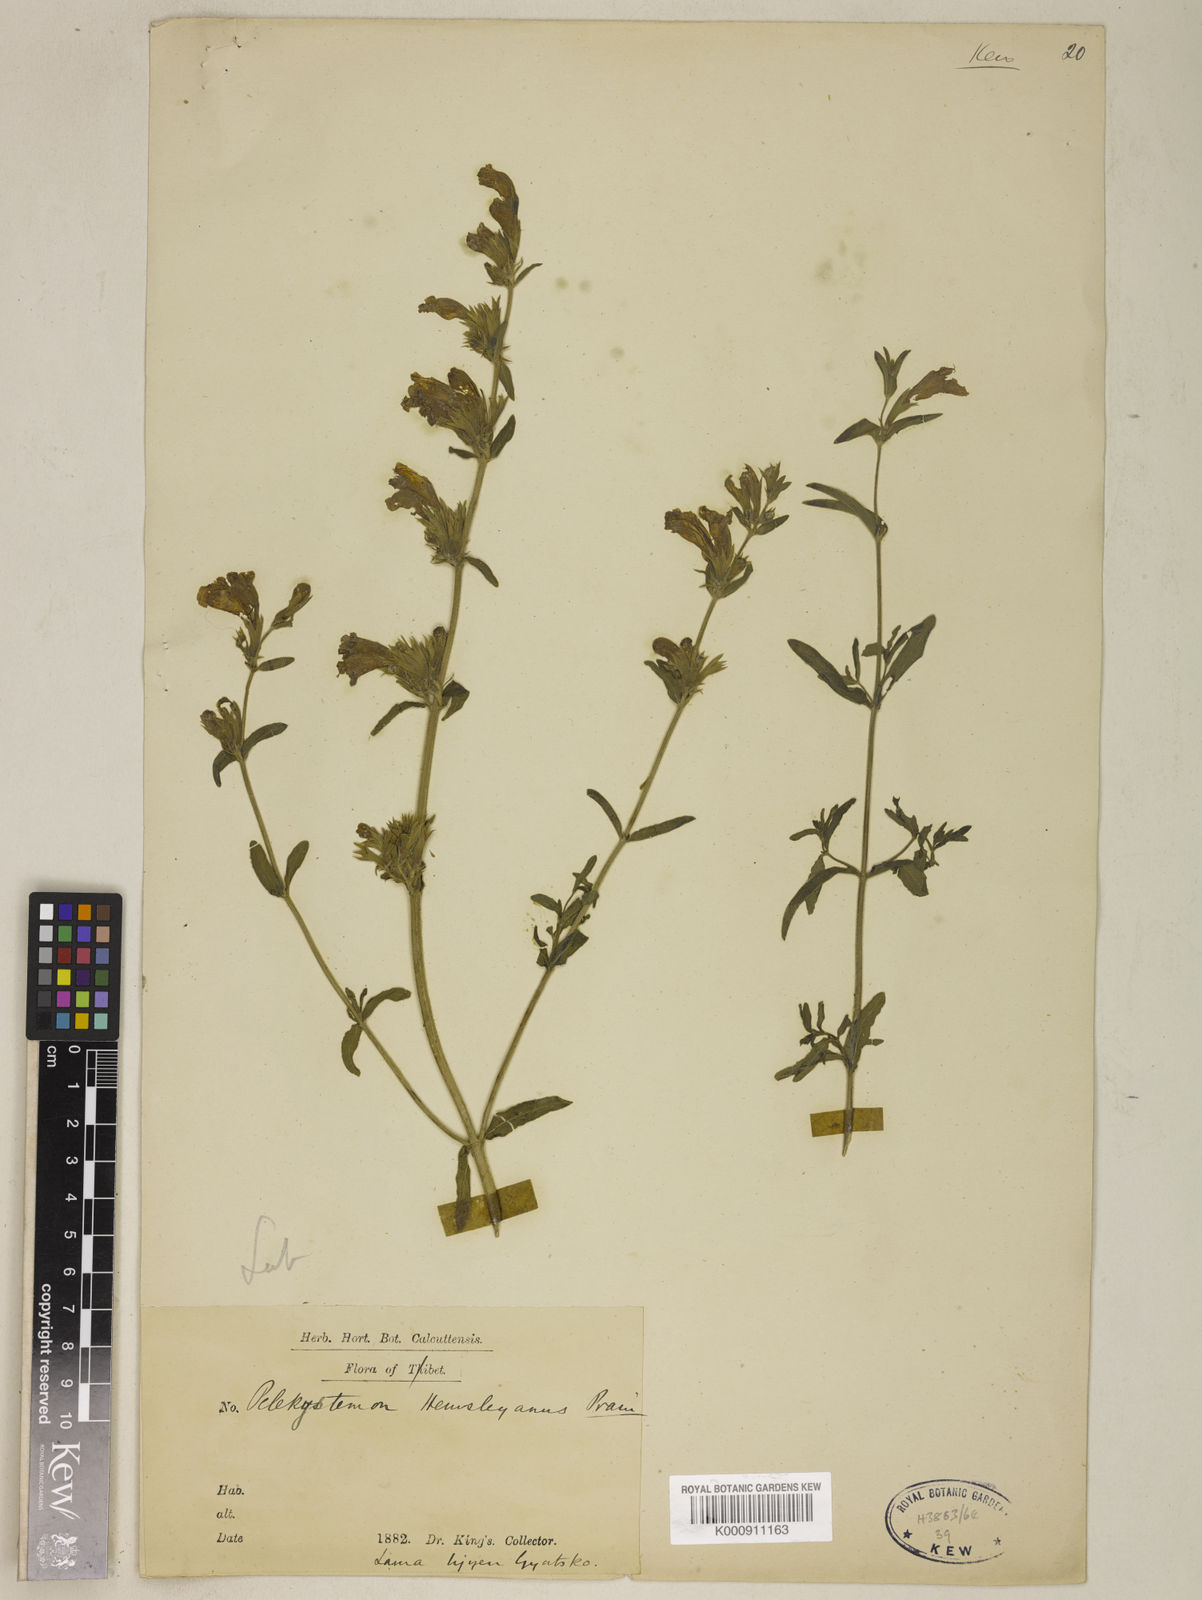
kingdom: Plantae
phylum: Tracheophyta
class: Magnoliopsida
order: Lamiales
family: Lamiaceae
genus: Nepeta
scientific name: Nepeta hemsleyana
